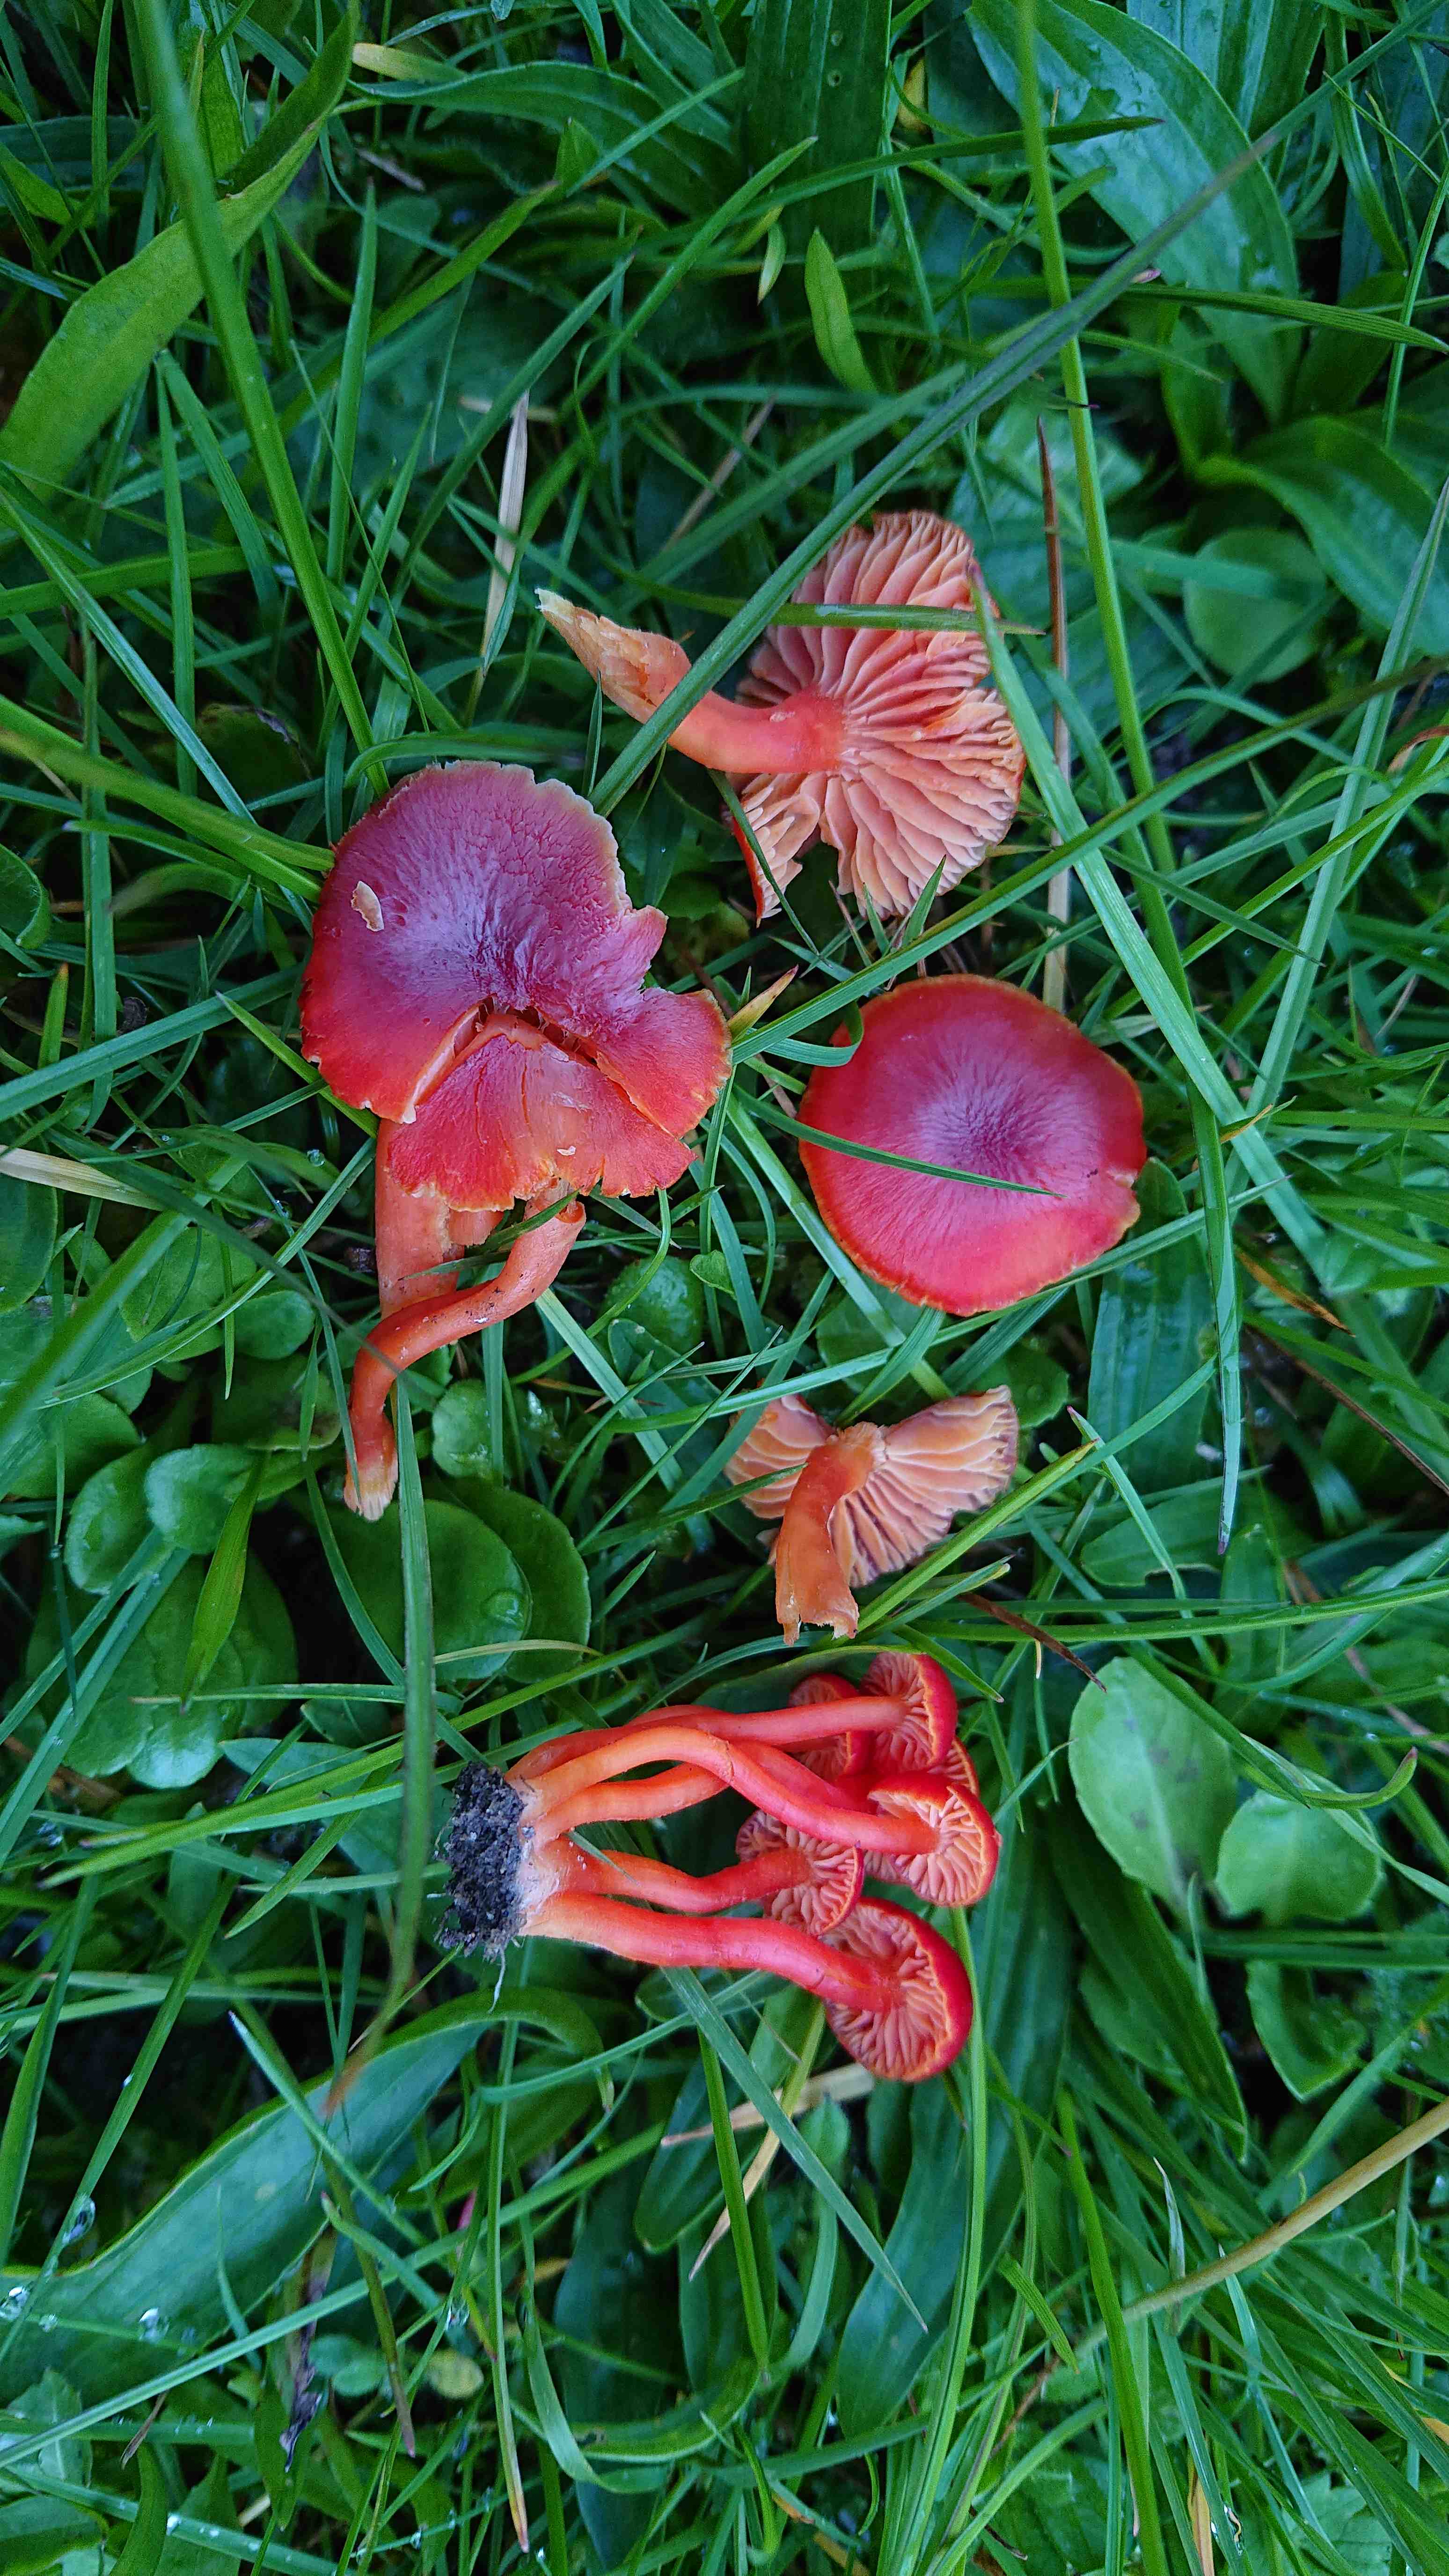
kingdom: Fungi
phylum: Basidiomycota
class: Agaricomycetes
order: Agaricales
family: Hygrophoraceae
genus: Hygrocybe
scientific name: Hygrocybe phaeococcinea
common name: sortdugget vokshat
